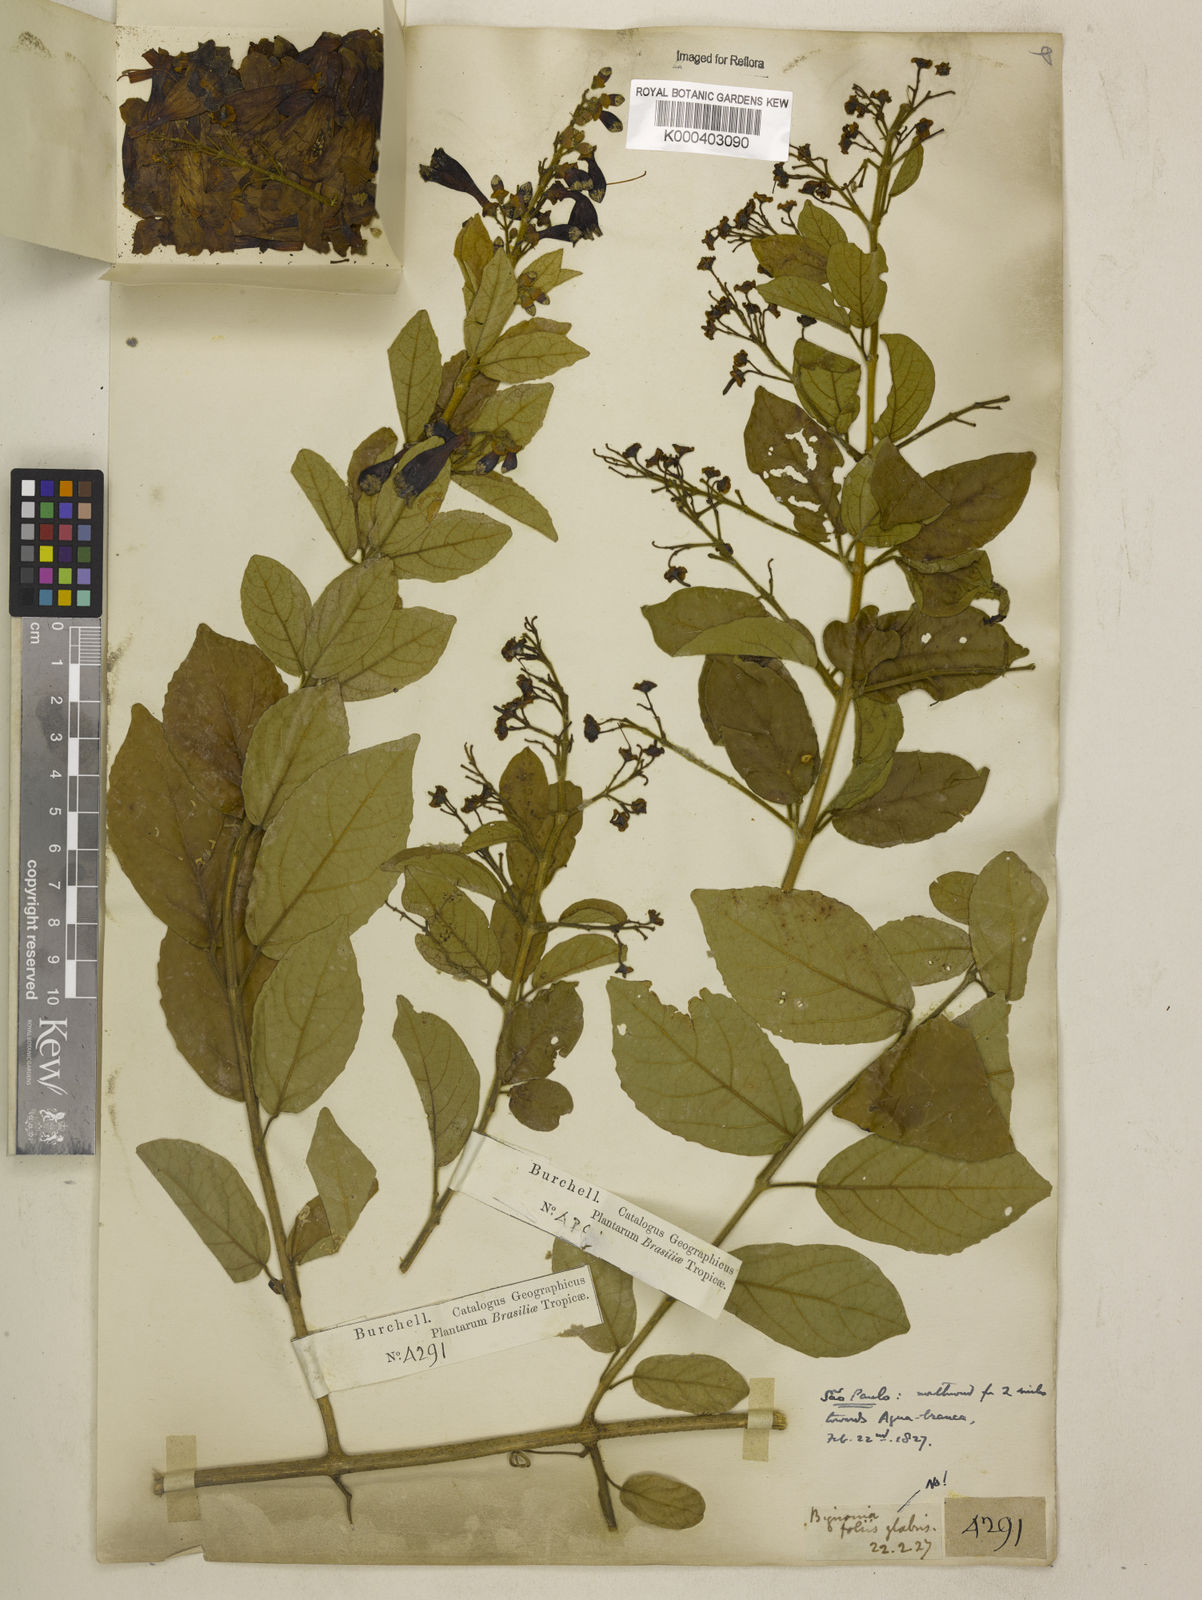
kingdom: Plantae
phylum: Tracheophyta
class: Magnoliopsida
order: Lamiales
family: Bignoniaceae
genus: Fridericia
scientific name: Fridericia samydoides
